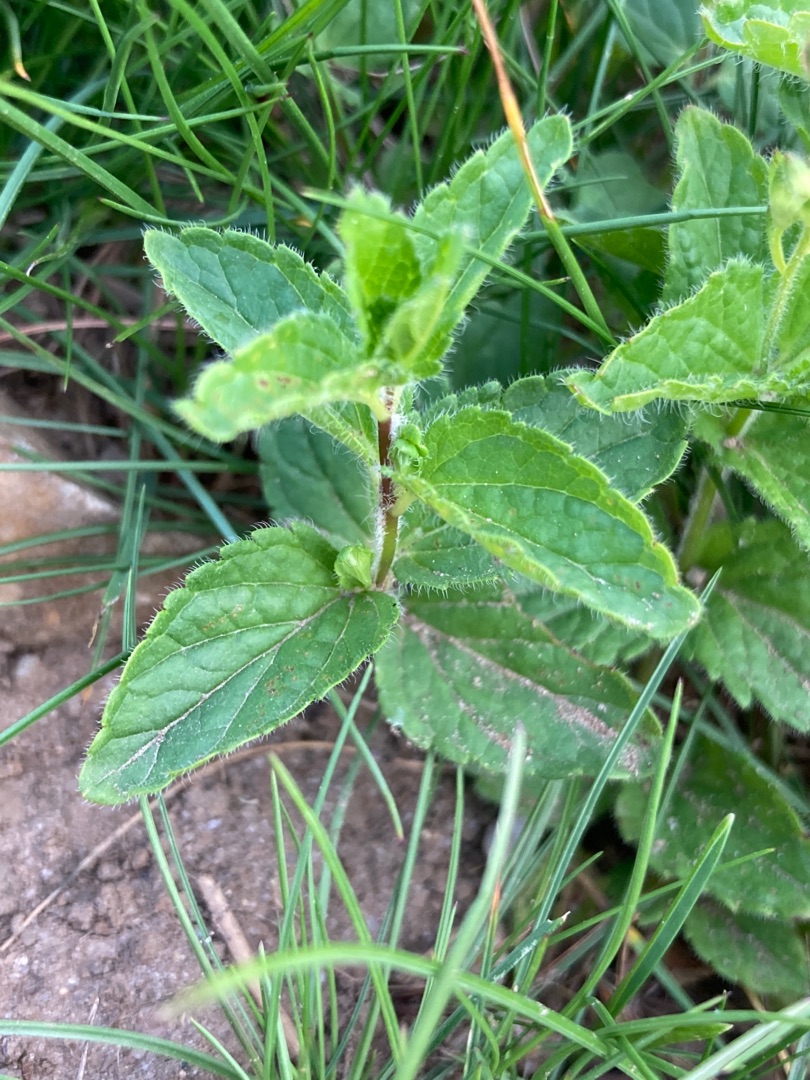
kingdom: Plantae
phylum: Tracheophyta
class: Magnoliopsida
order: Lamiales
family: Plantaginaceae
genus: Veronica
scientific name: Veronica chamaedrys
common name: Tveskægget ærenpris
